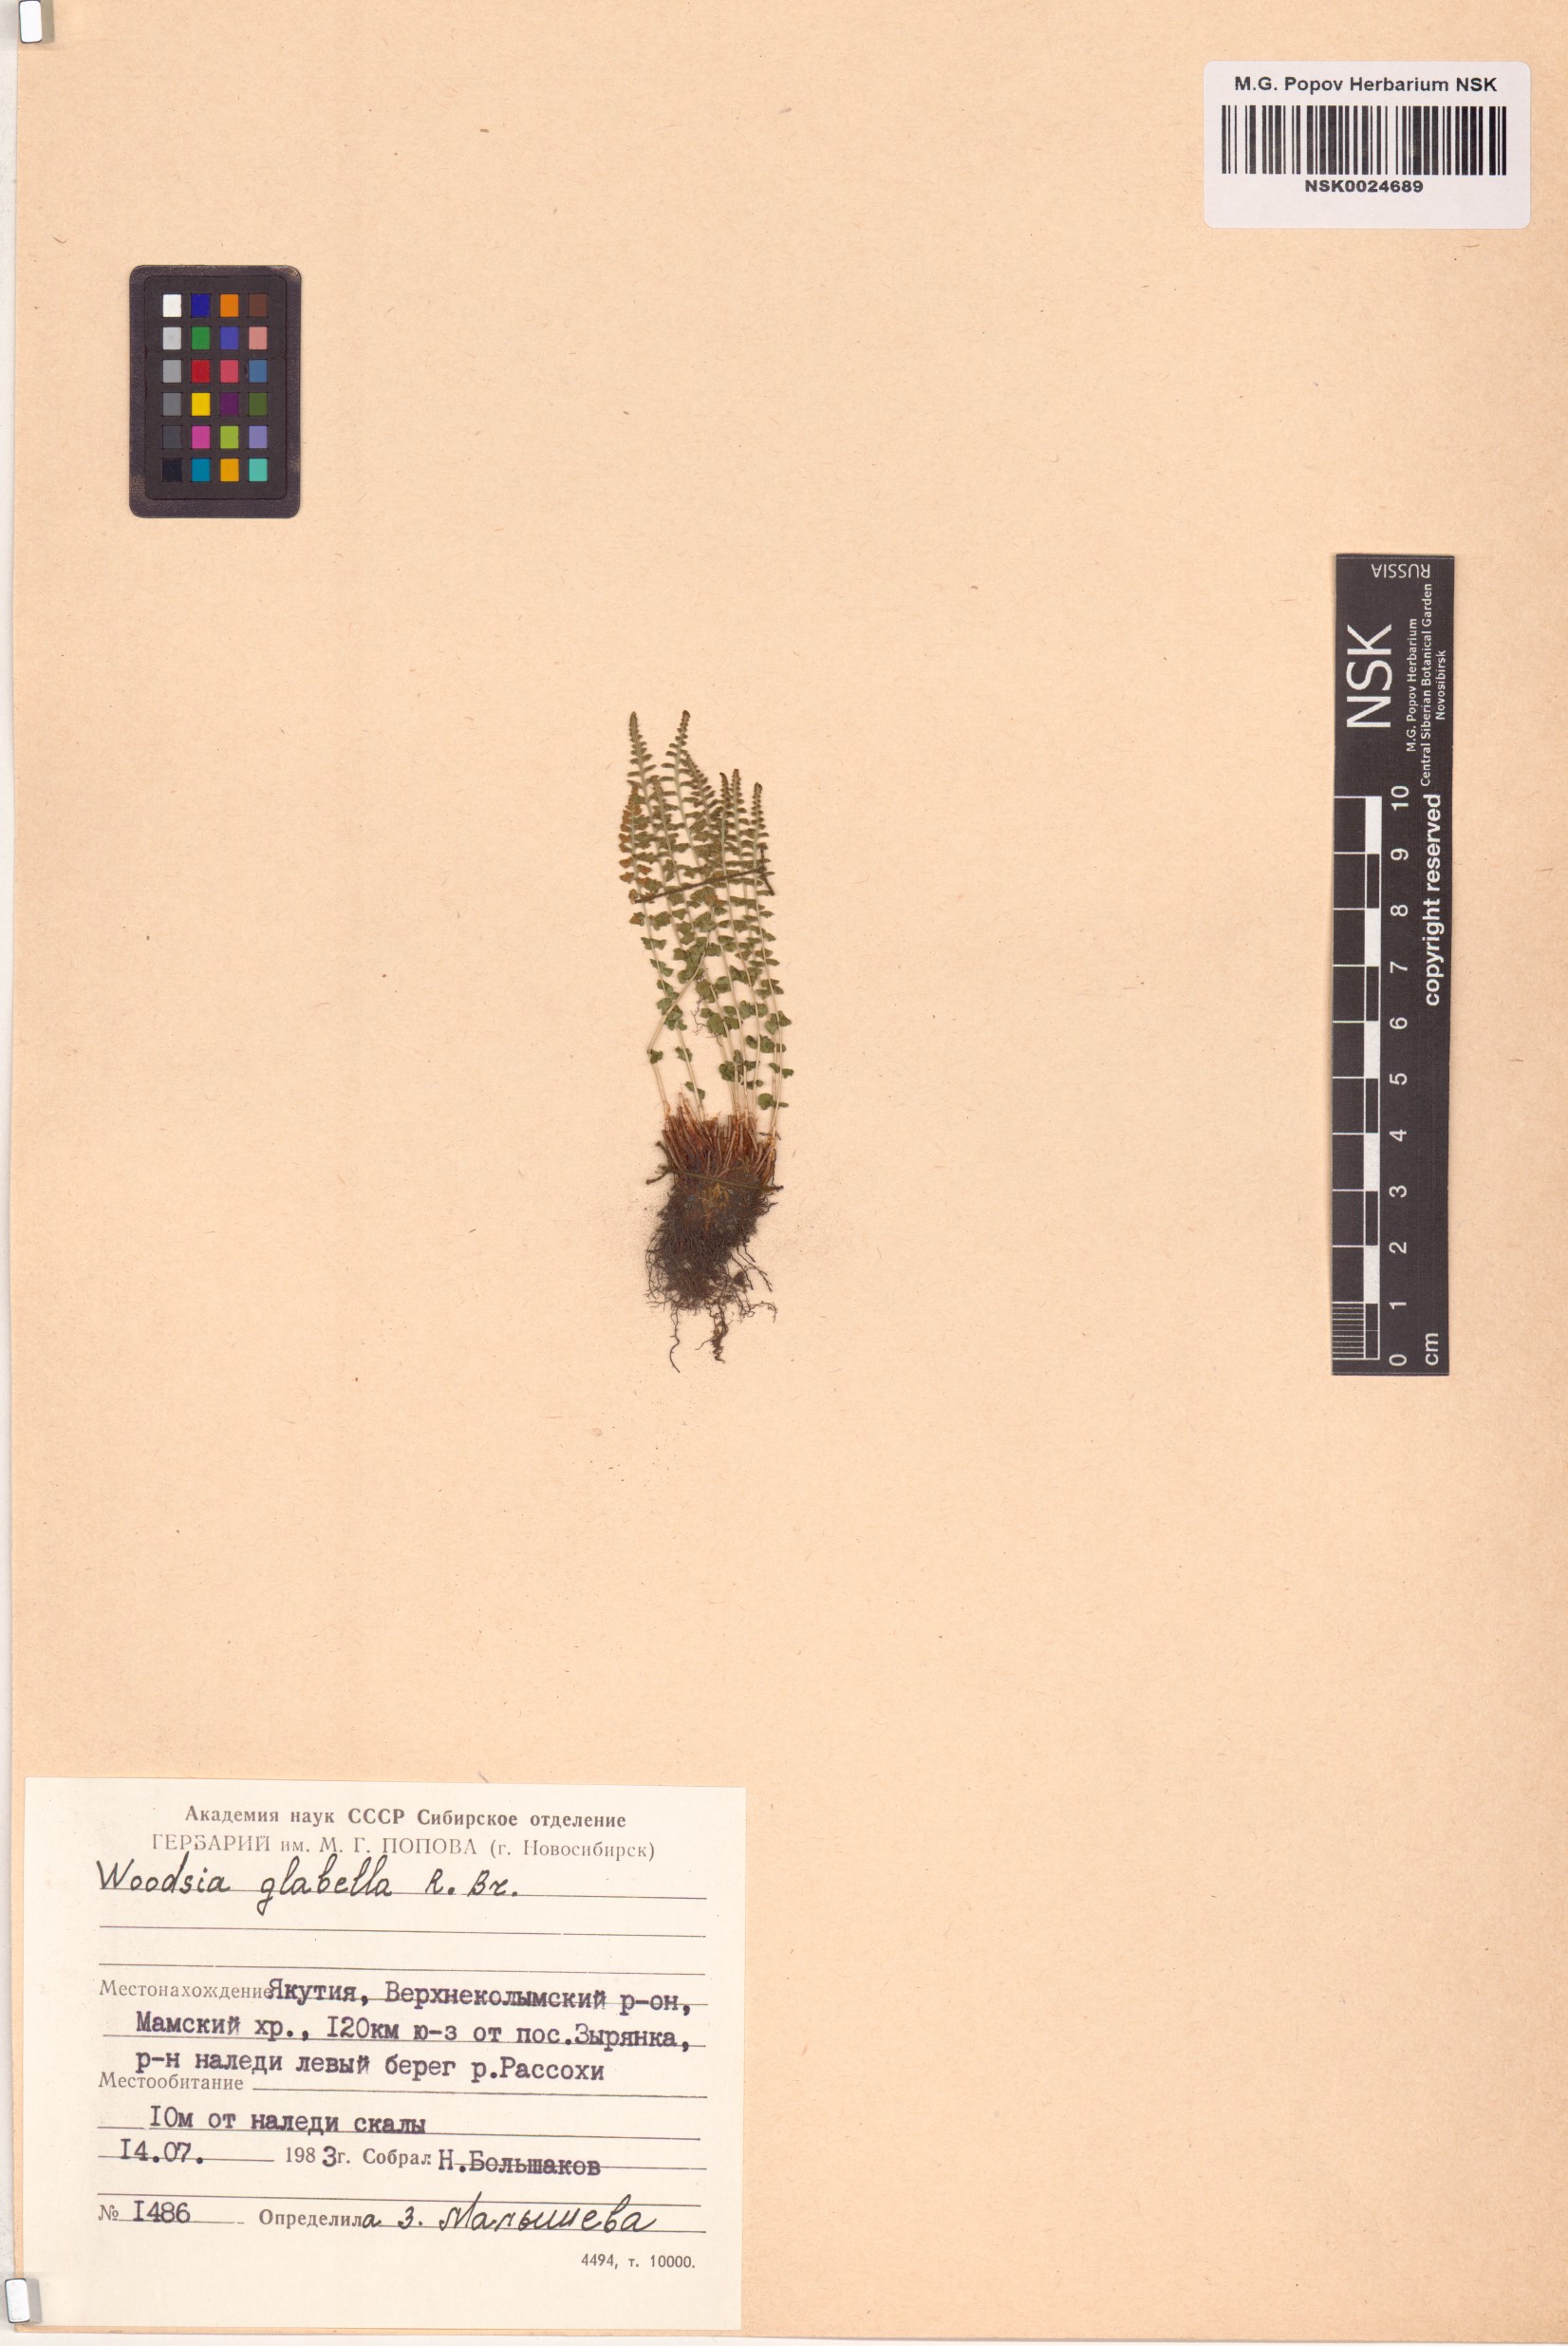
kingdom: Plantae
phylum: Tracheophyta
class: Polypodiopsida
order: Polypodiales
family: Woodsiaceae
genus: Woodsia
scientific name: Woodsia glabella
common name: Smooth woodsia
